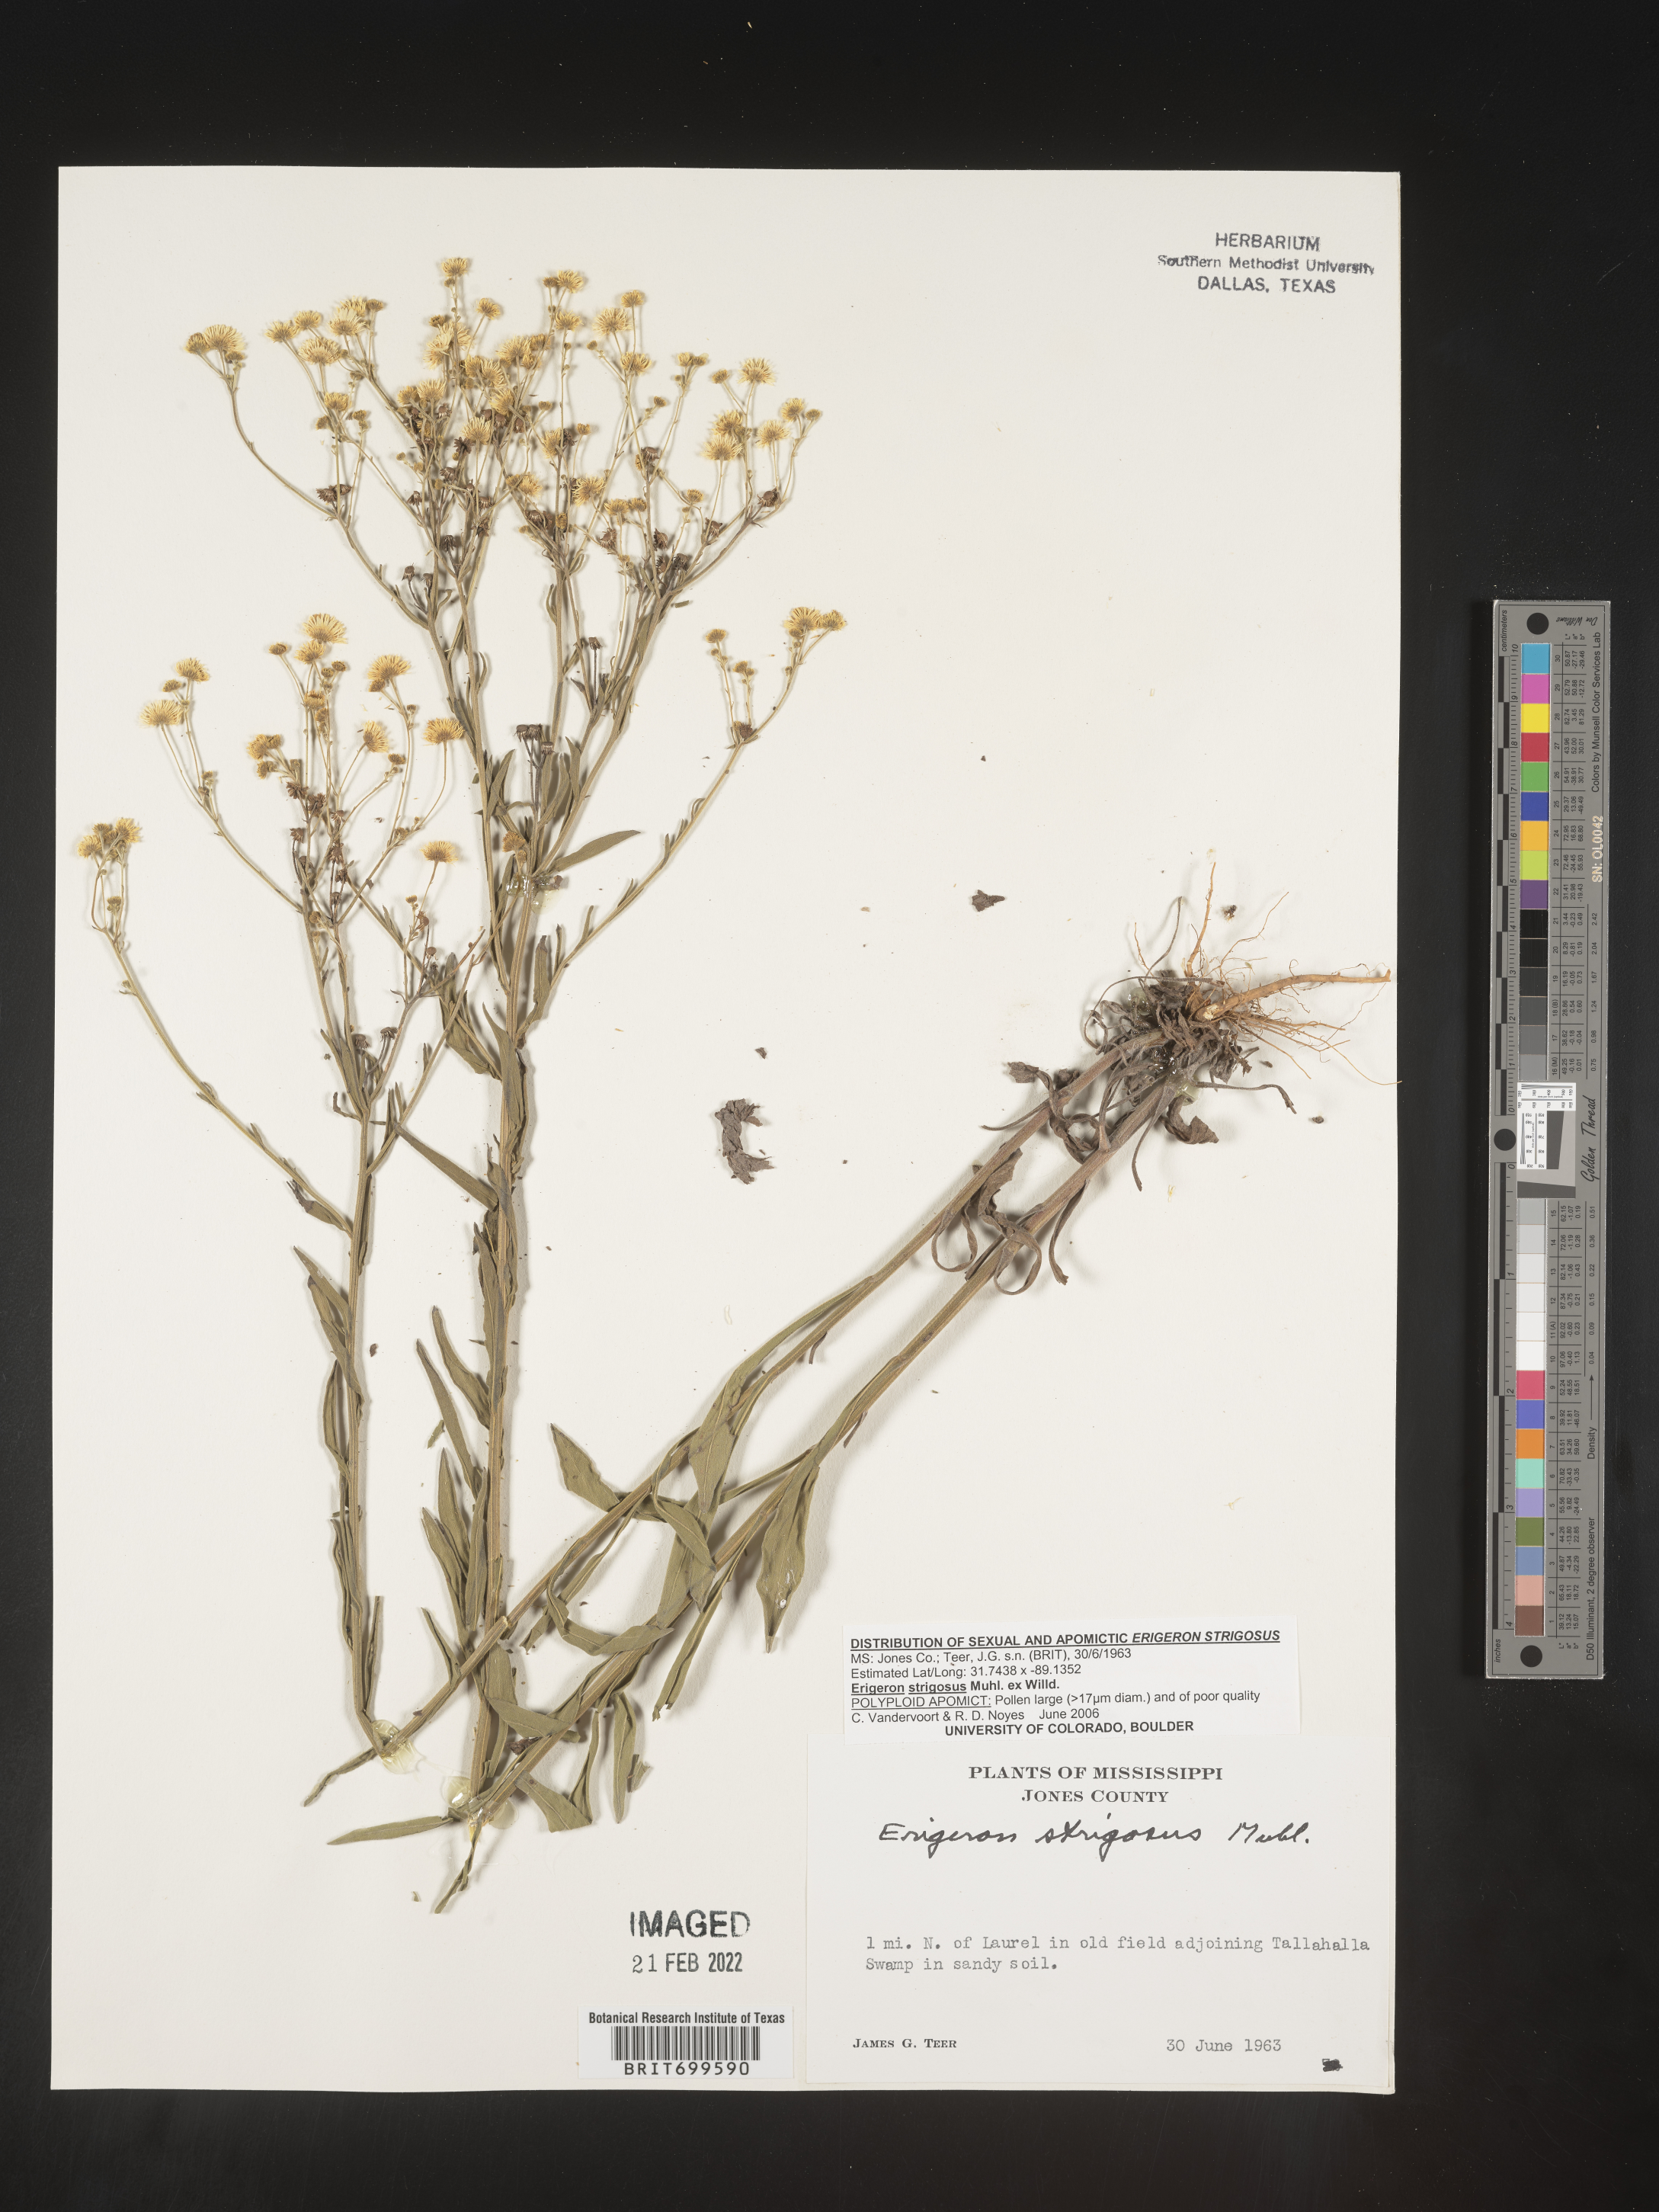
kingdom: Plantae
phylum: Tracheophyta
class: Magnoliopsida
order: Asterales
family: Asteraceae
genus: Erigeron
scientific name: Erigeron strigosus
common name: Common eastern fleabane
